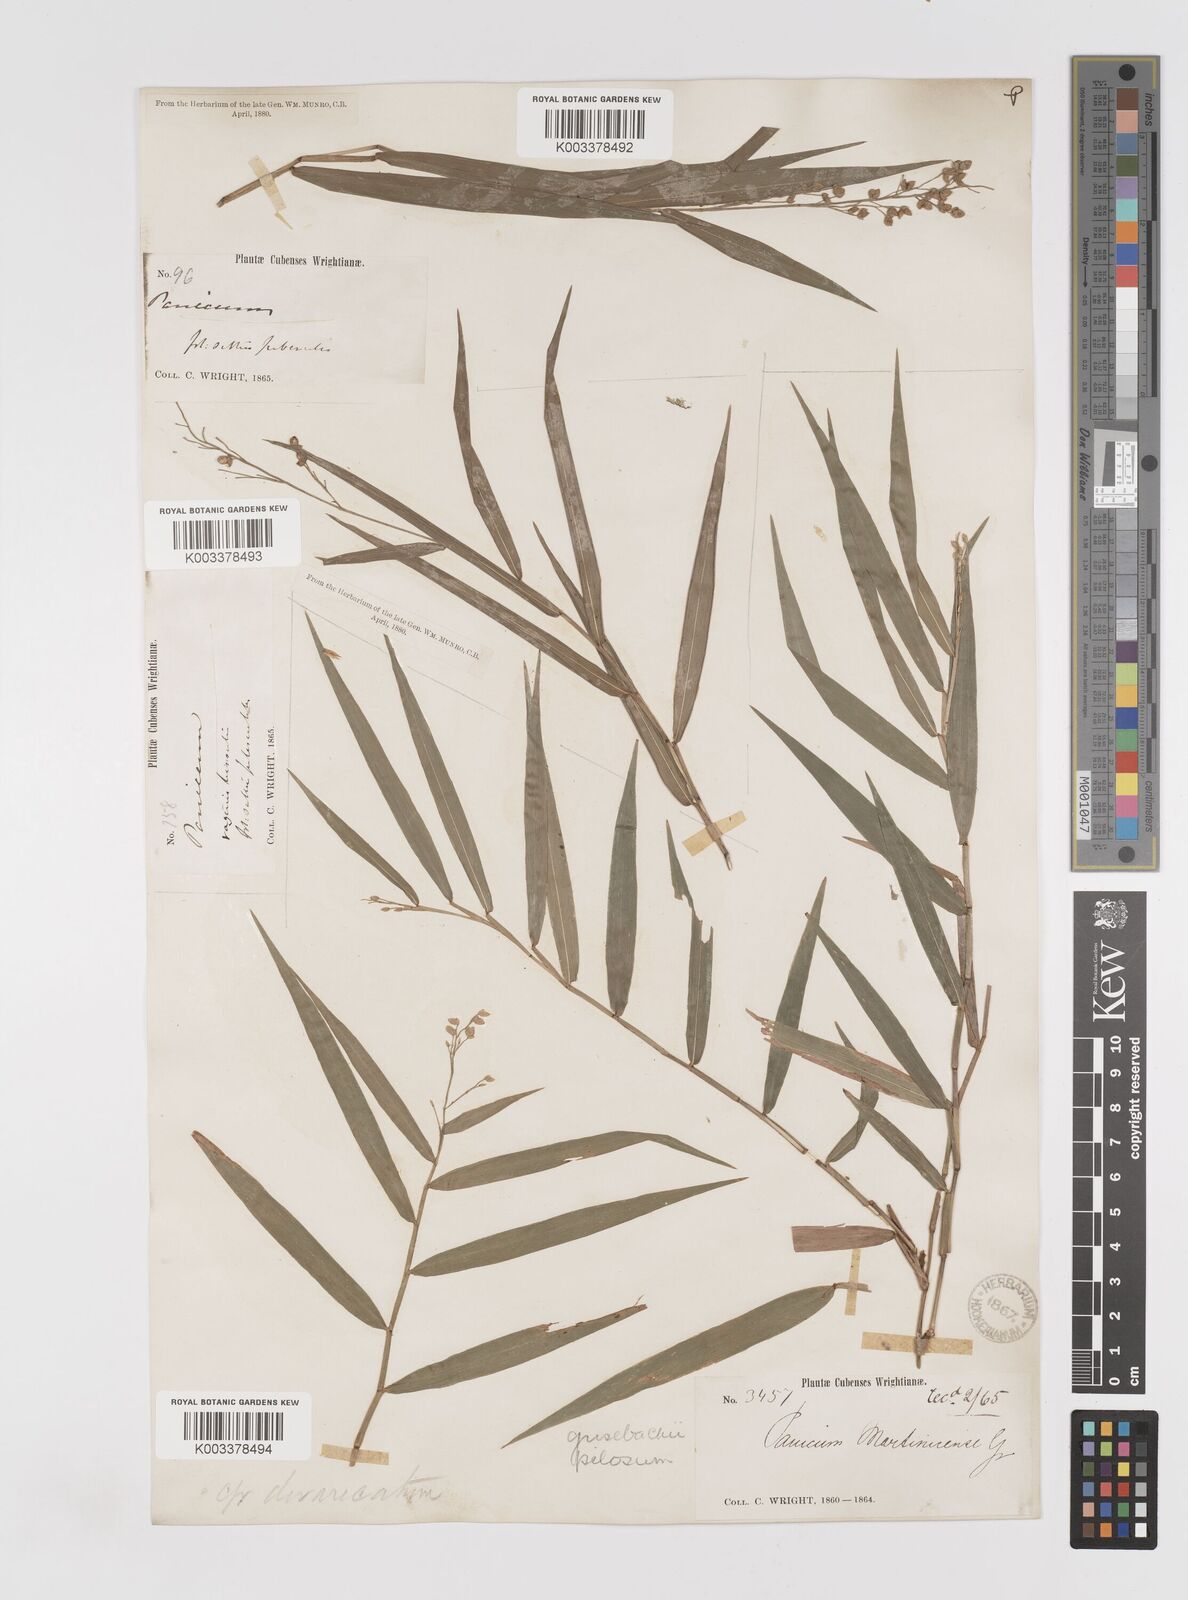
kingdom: Plantae
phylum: Tracheophyta
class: Liliopsida
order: Poales
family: Poaceae
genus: Lasiacis
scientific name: Lasiacis grisebachii
